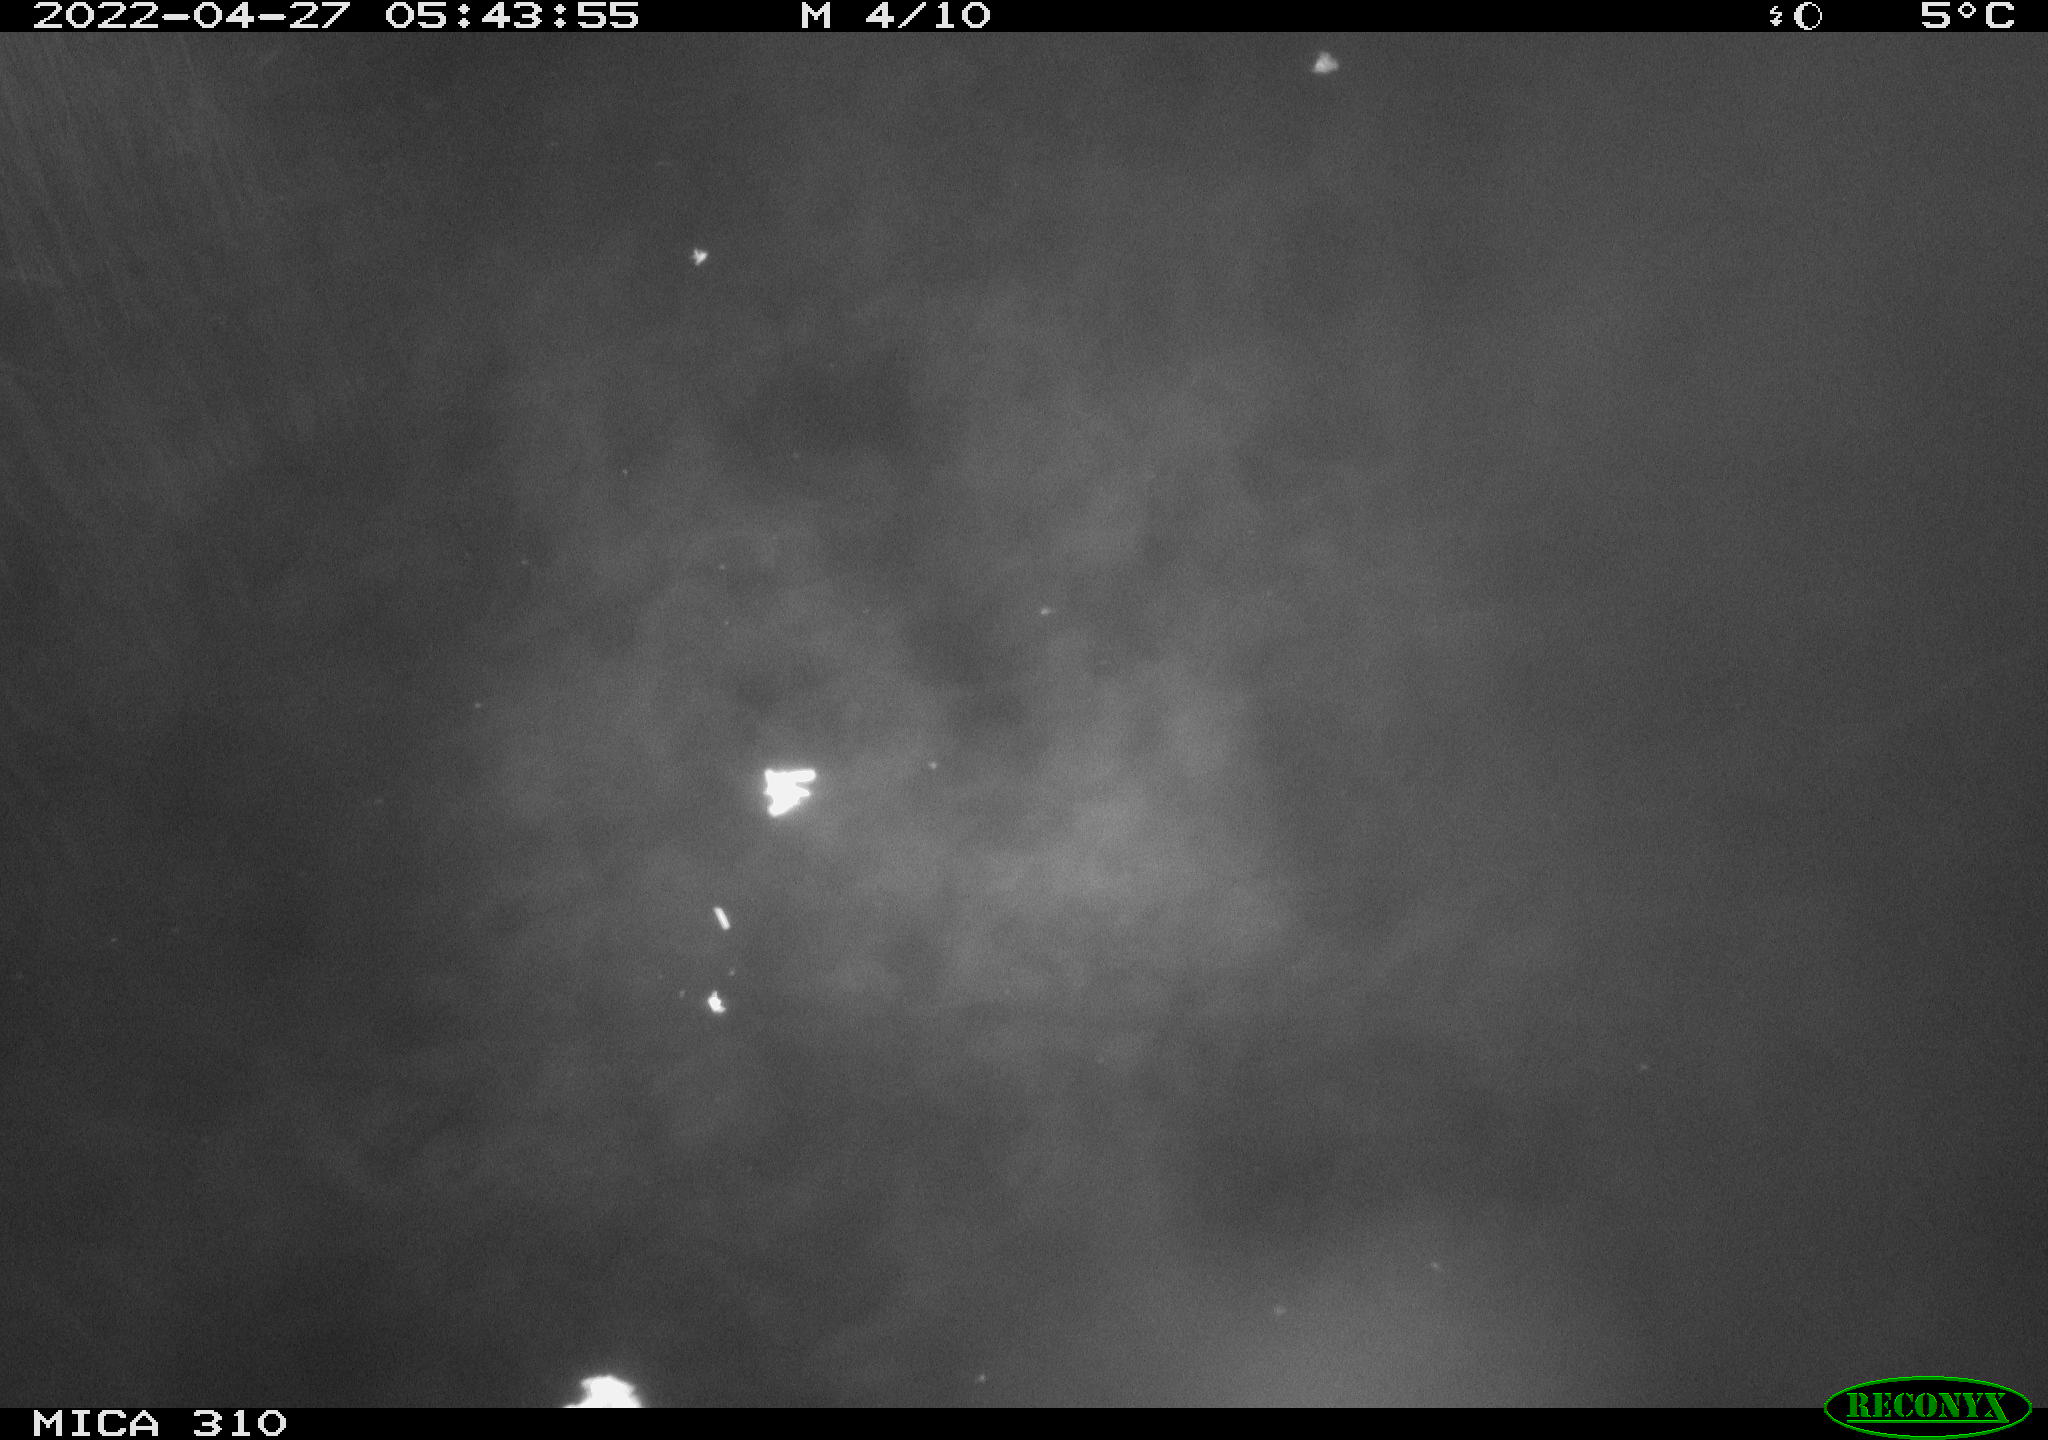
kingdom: Animalia
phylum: Chordata
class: Aves
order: Anseriformes
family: Anatidae
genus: Anas
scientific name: Anas platyrhynchos
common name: Mallard
